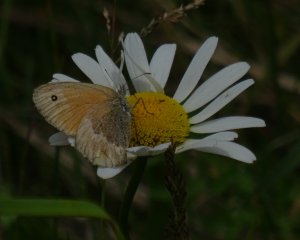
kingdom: Animalia
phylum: Arthropoda
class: Insecta
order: Lepidoptera
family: Nymphalidae
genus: Coenonympha
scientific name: Coenonympha tullia
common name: Large Heath
